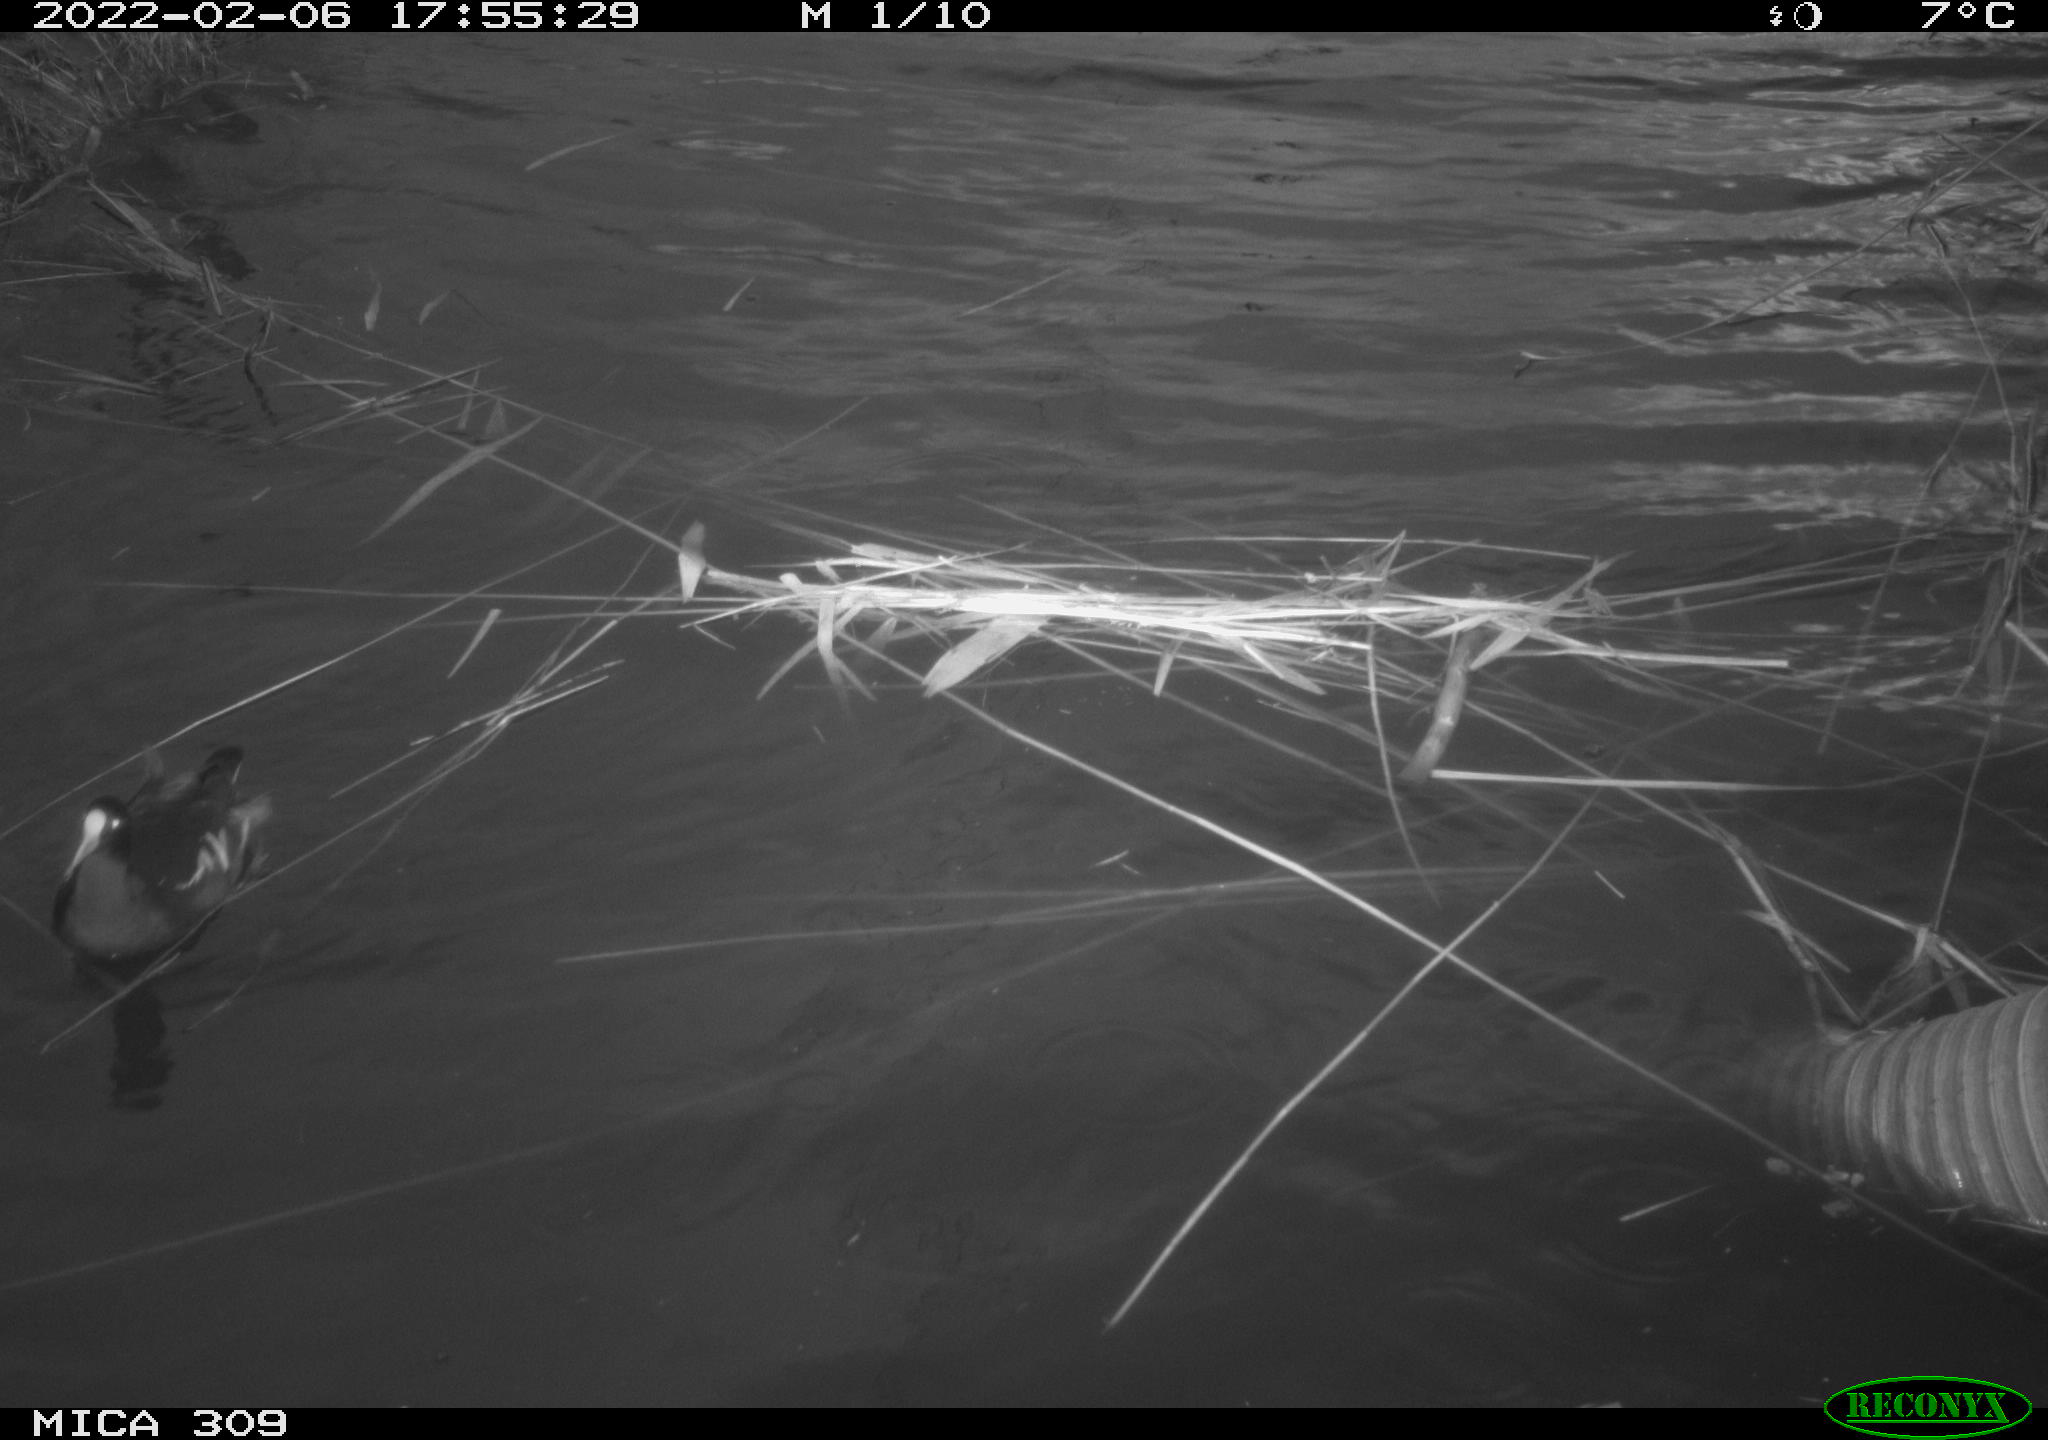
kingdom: Animalia
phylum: Chordata
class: Aves
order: Gruiformes
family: Rallidae
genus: Gallinula
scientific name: Gallinula chloropus
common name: Common moorhen
